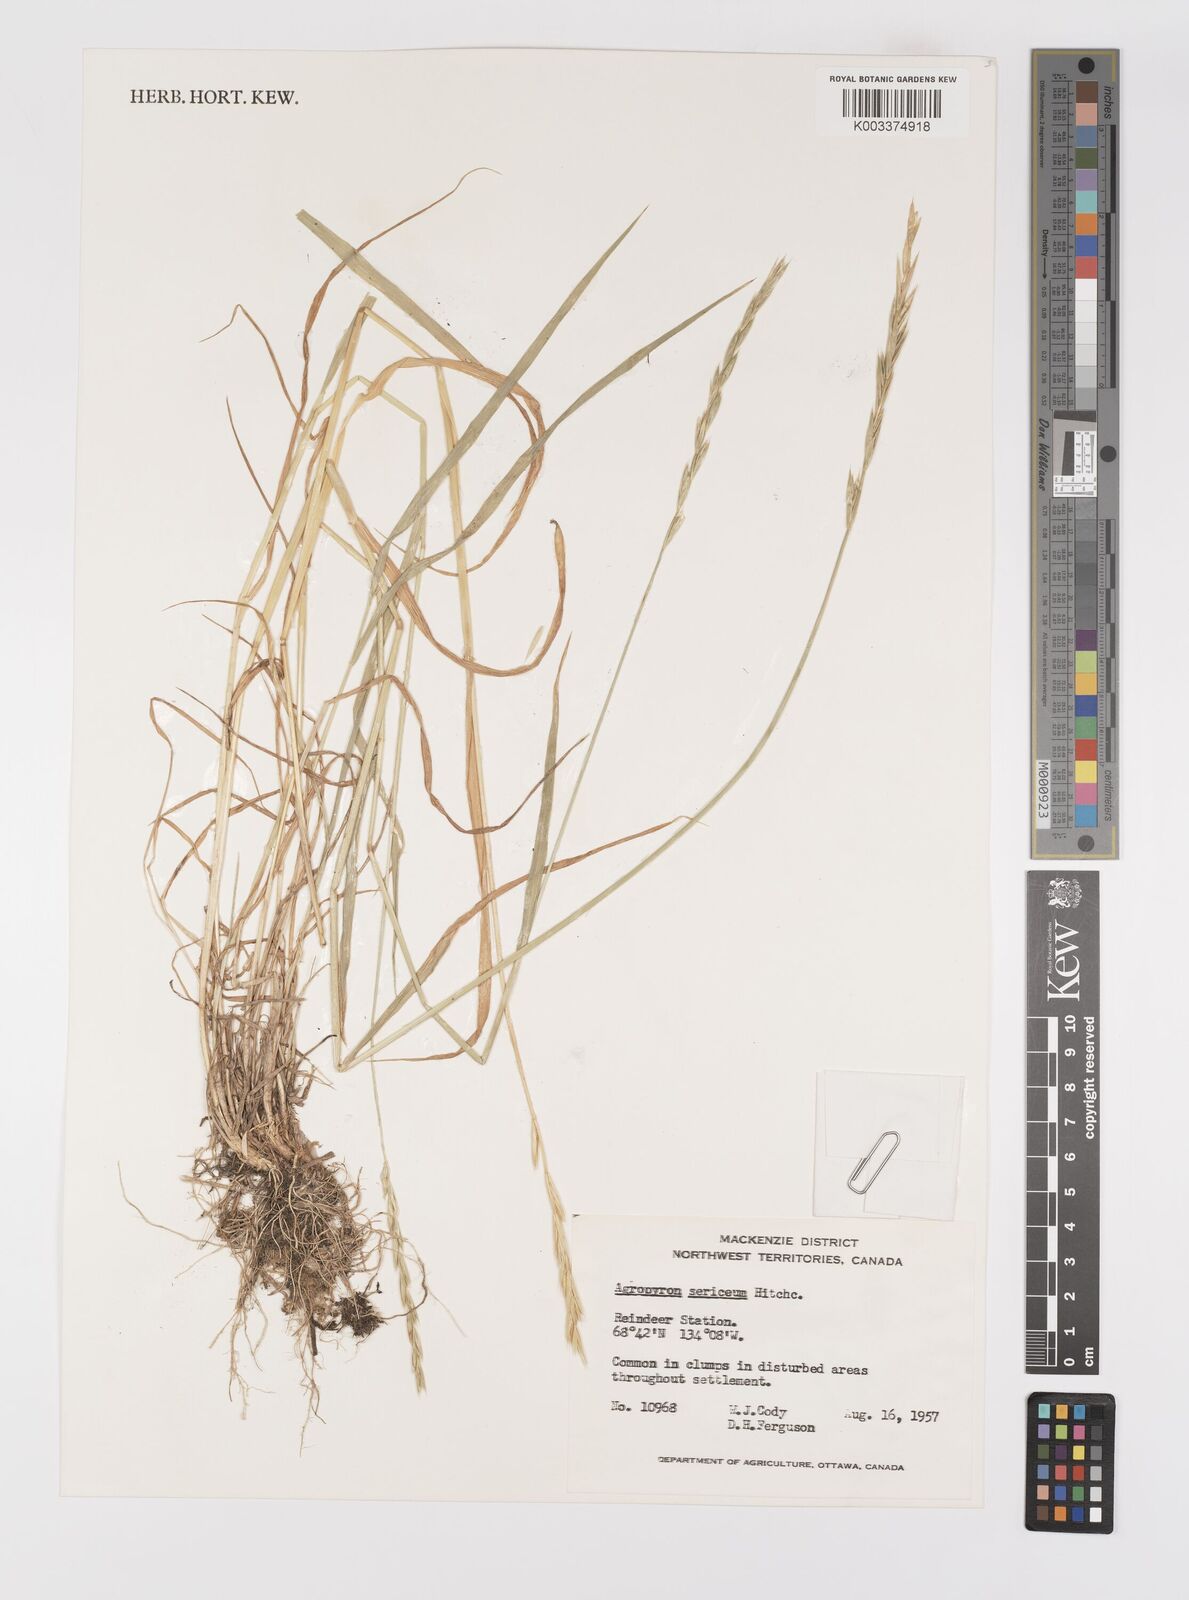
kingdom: Plantae
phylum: Tracheophyta
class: Liliopsida
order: Poales
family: Poaceae
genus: Elymus
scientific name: Elymus macrourus
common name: Northern wheatgrass
